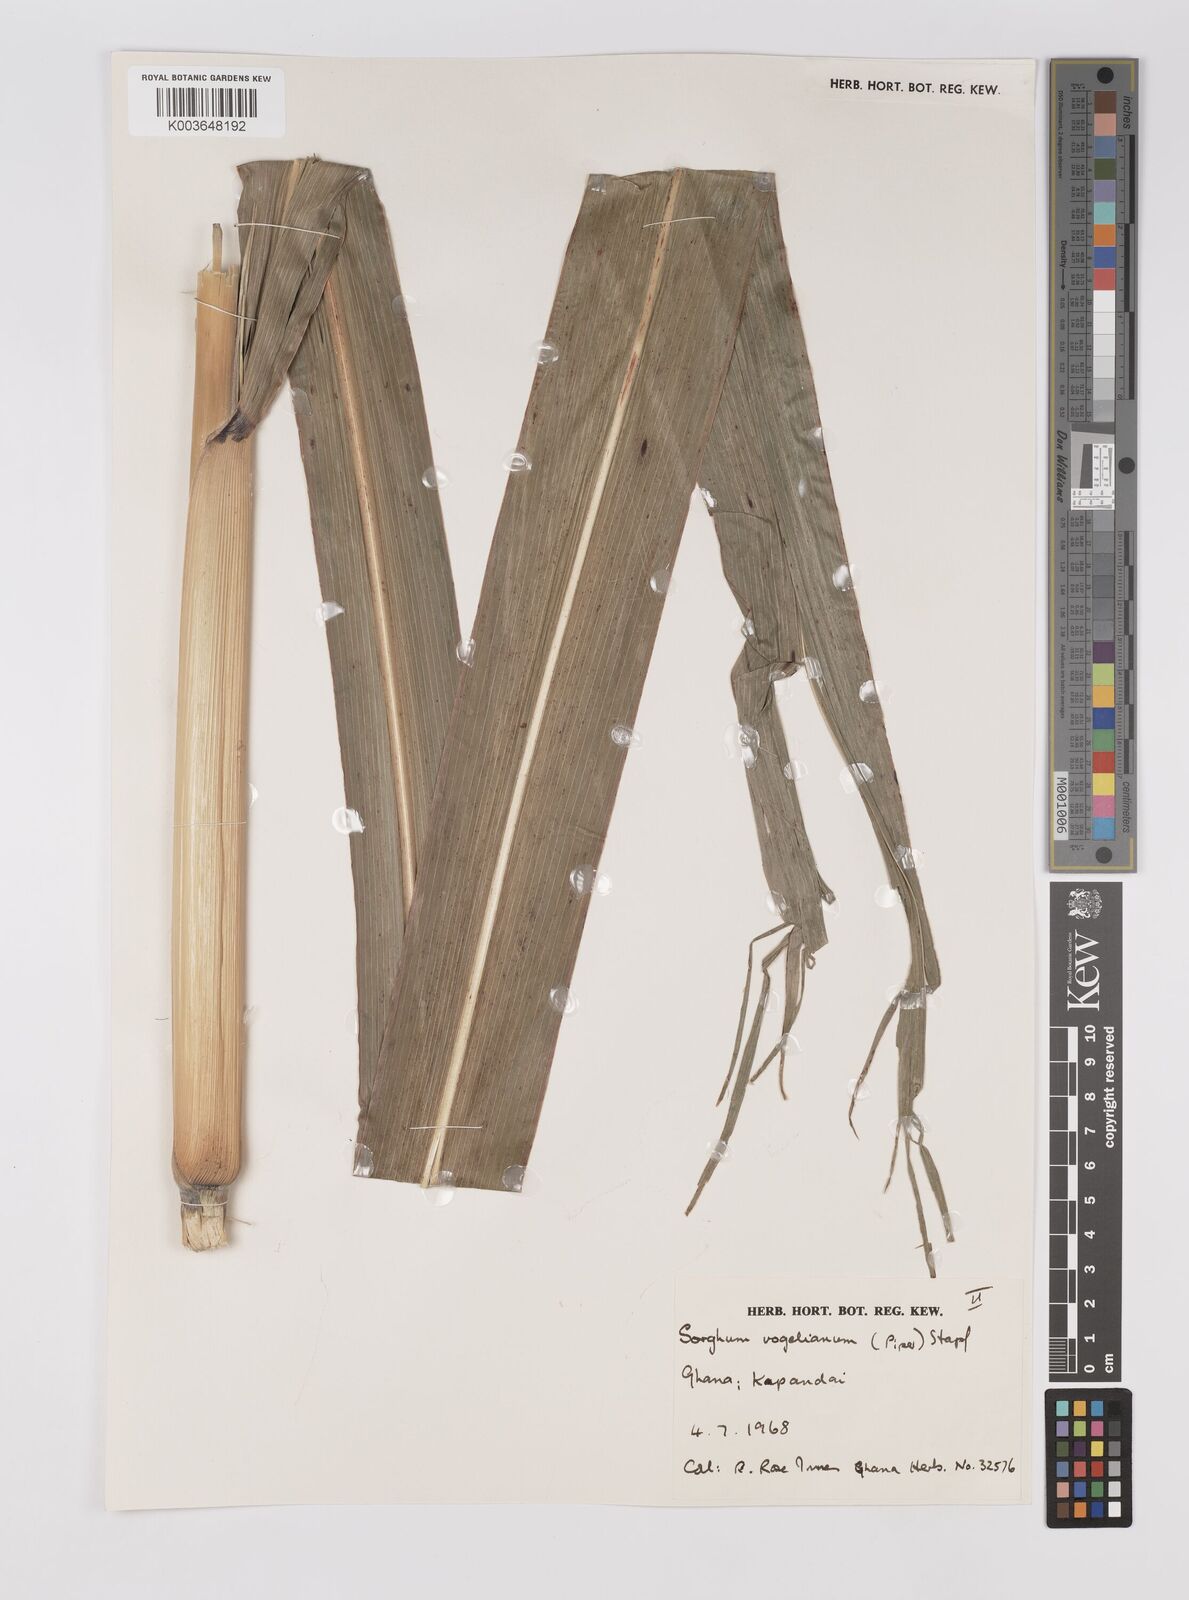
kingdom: Plantae
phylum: Tracheophyta
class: Liliopsida
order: Poales
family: Poaceae
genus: Sorghum
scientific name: Sorghum arundinaceum
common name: Sorghum
